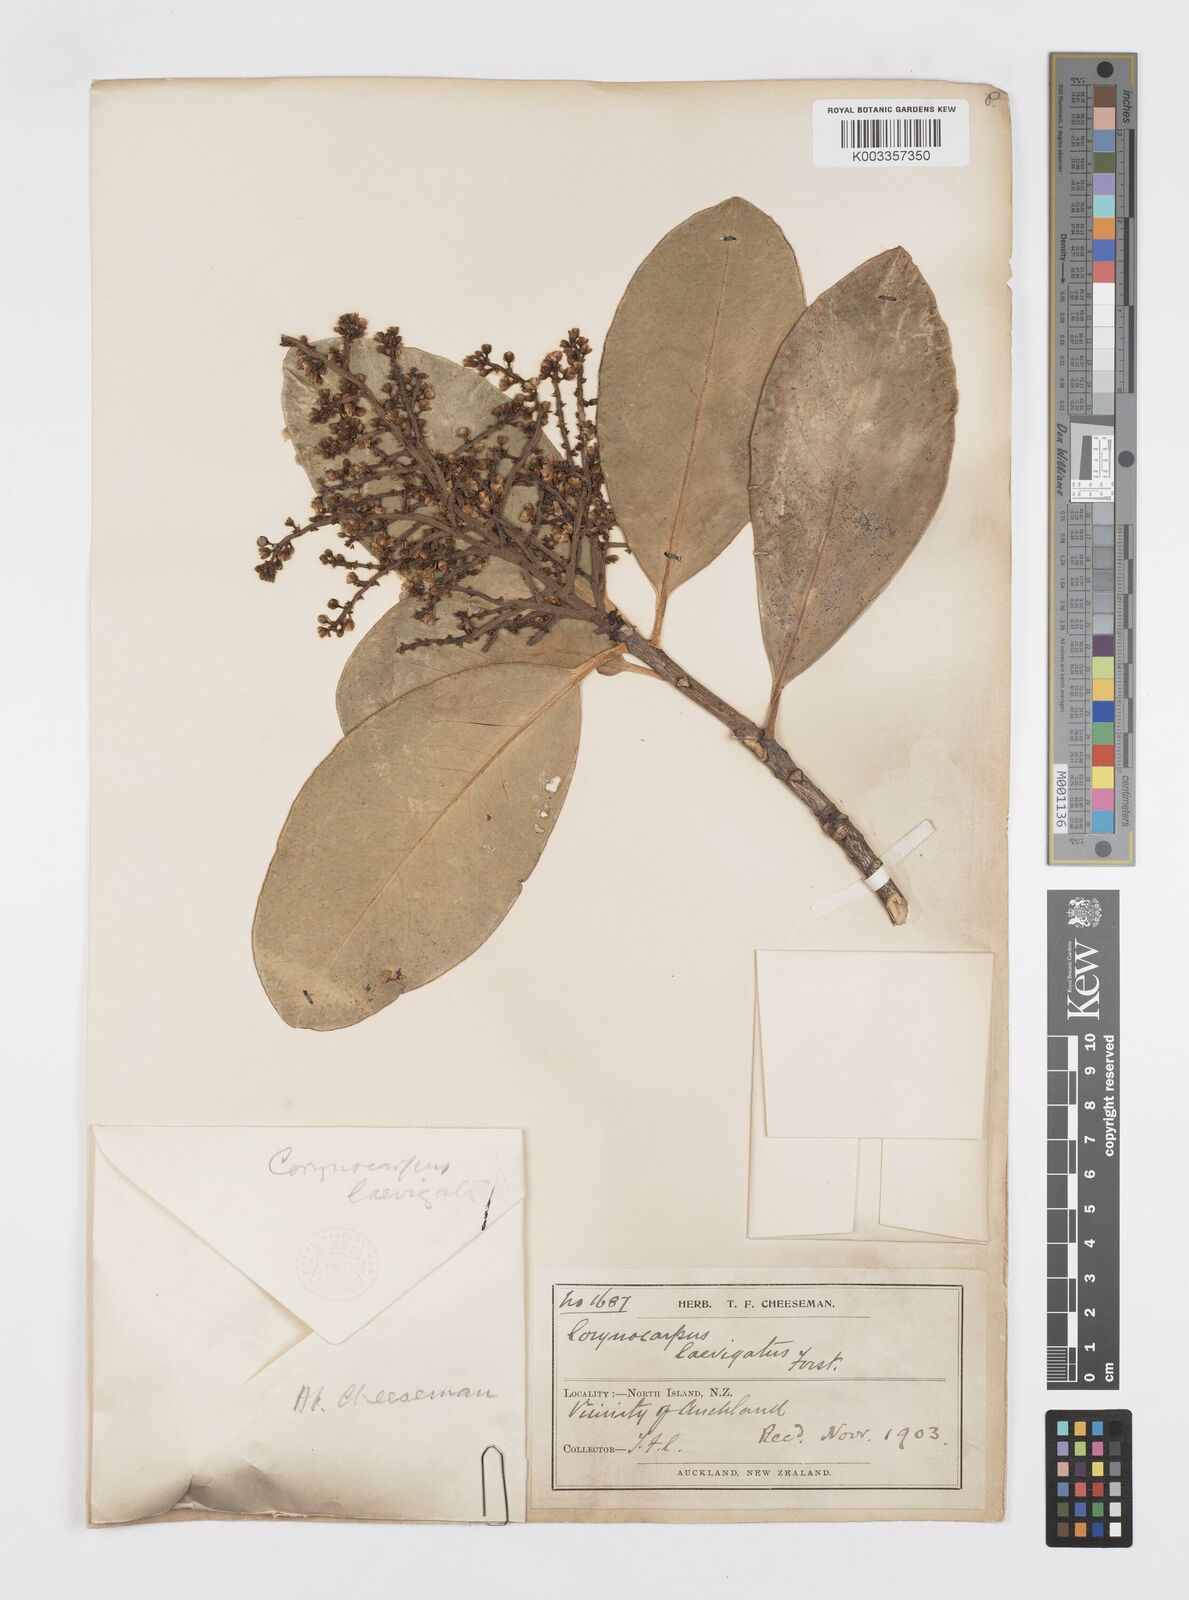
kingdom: Plantae
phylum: Tracheophyta
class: Magnoliopsida
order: Cucurbitales
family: Corynocarpaceae
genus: Corynocarpus
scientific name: Corynocarpus laevigatus
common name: New zealand laurel
